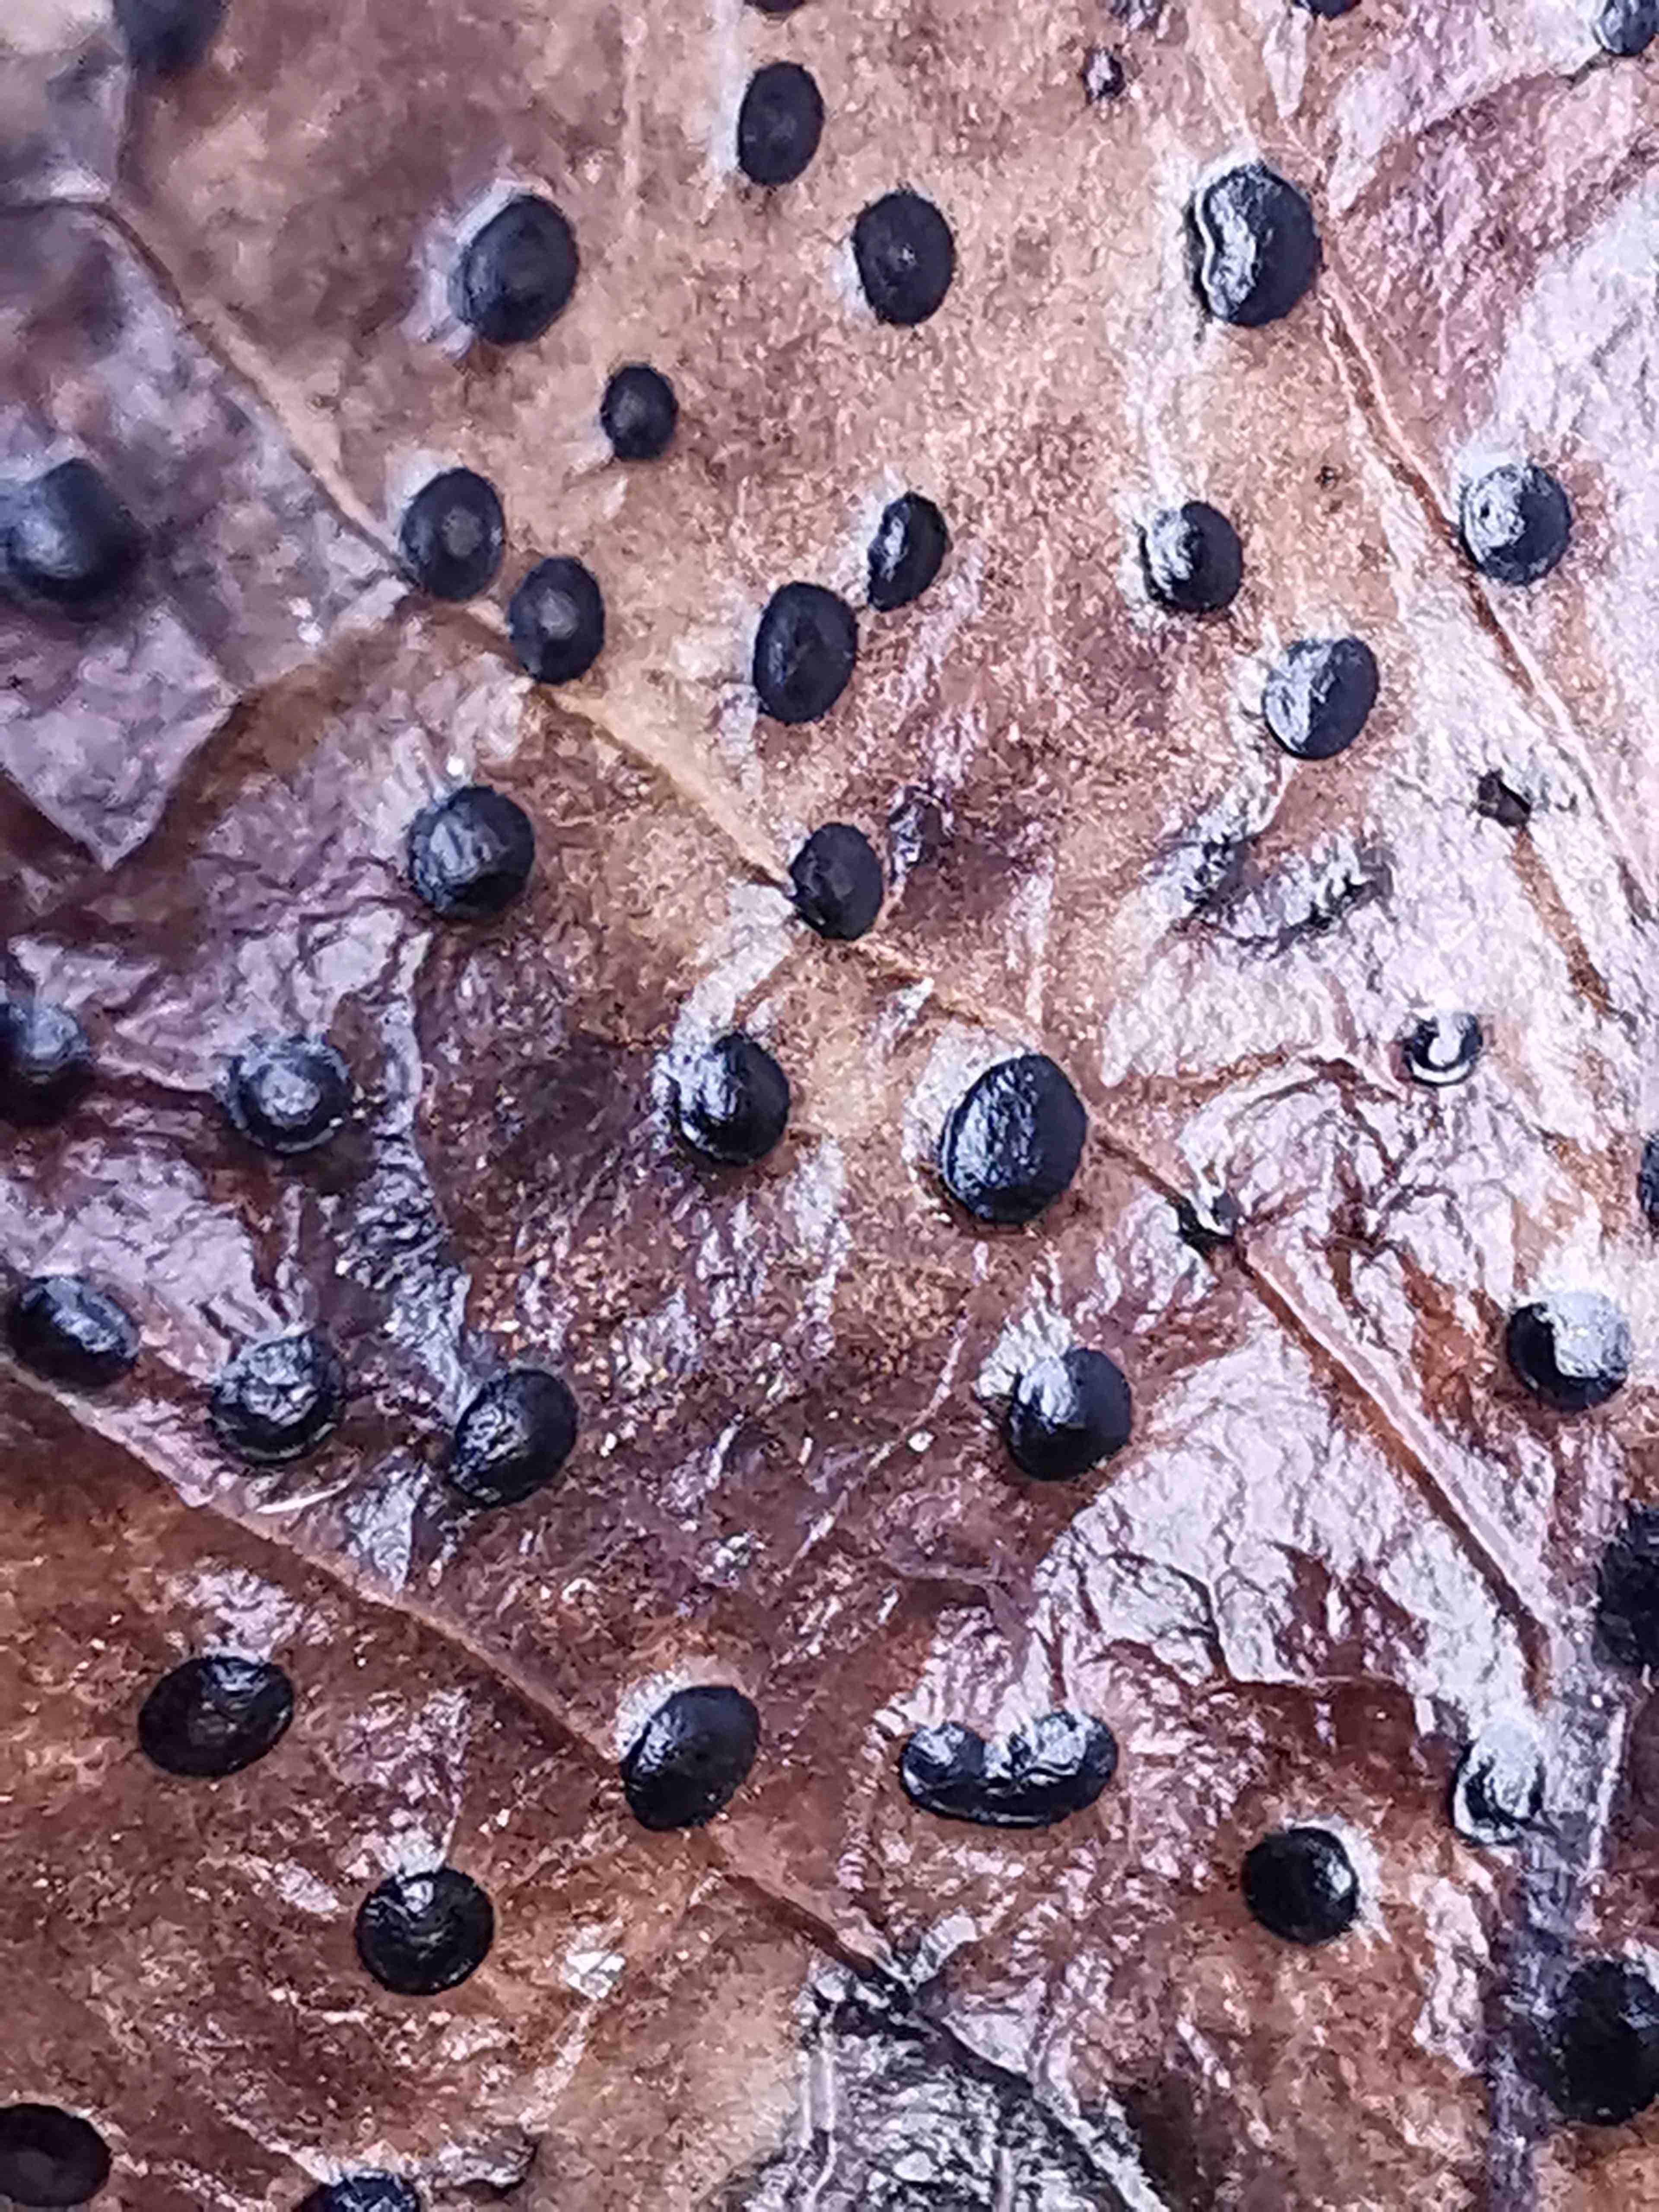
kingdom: Fungi
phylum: Ascomycota
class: Leotiomycetes
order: Phacidiales
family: Phacidiaceae
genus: Phacidium
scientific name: Phacidium lauri
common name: kristtorn-tandskive
